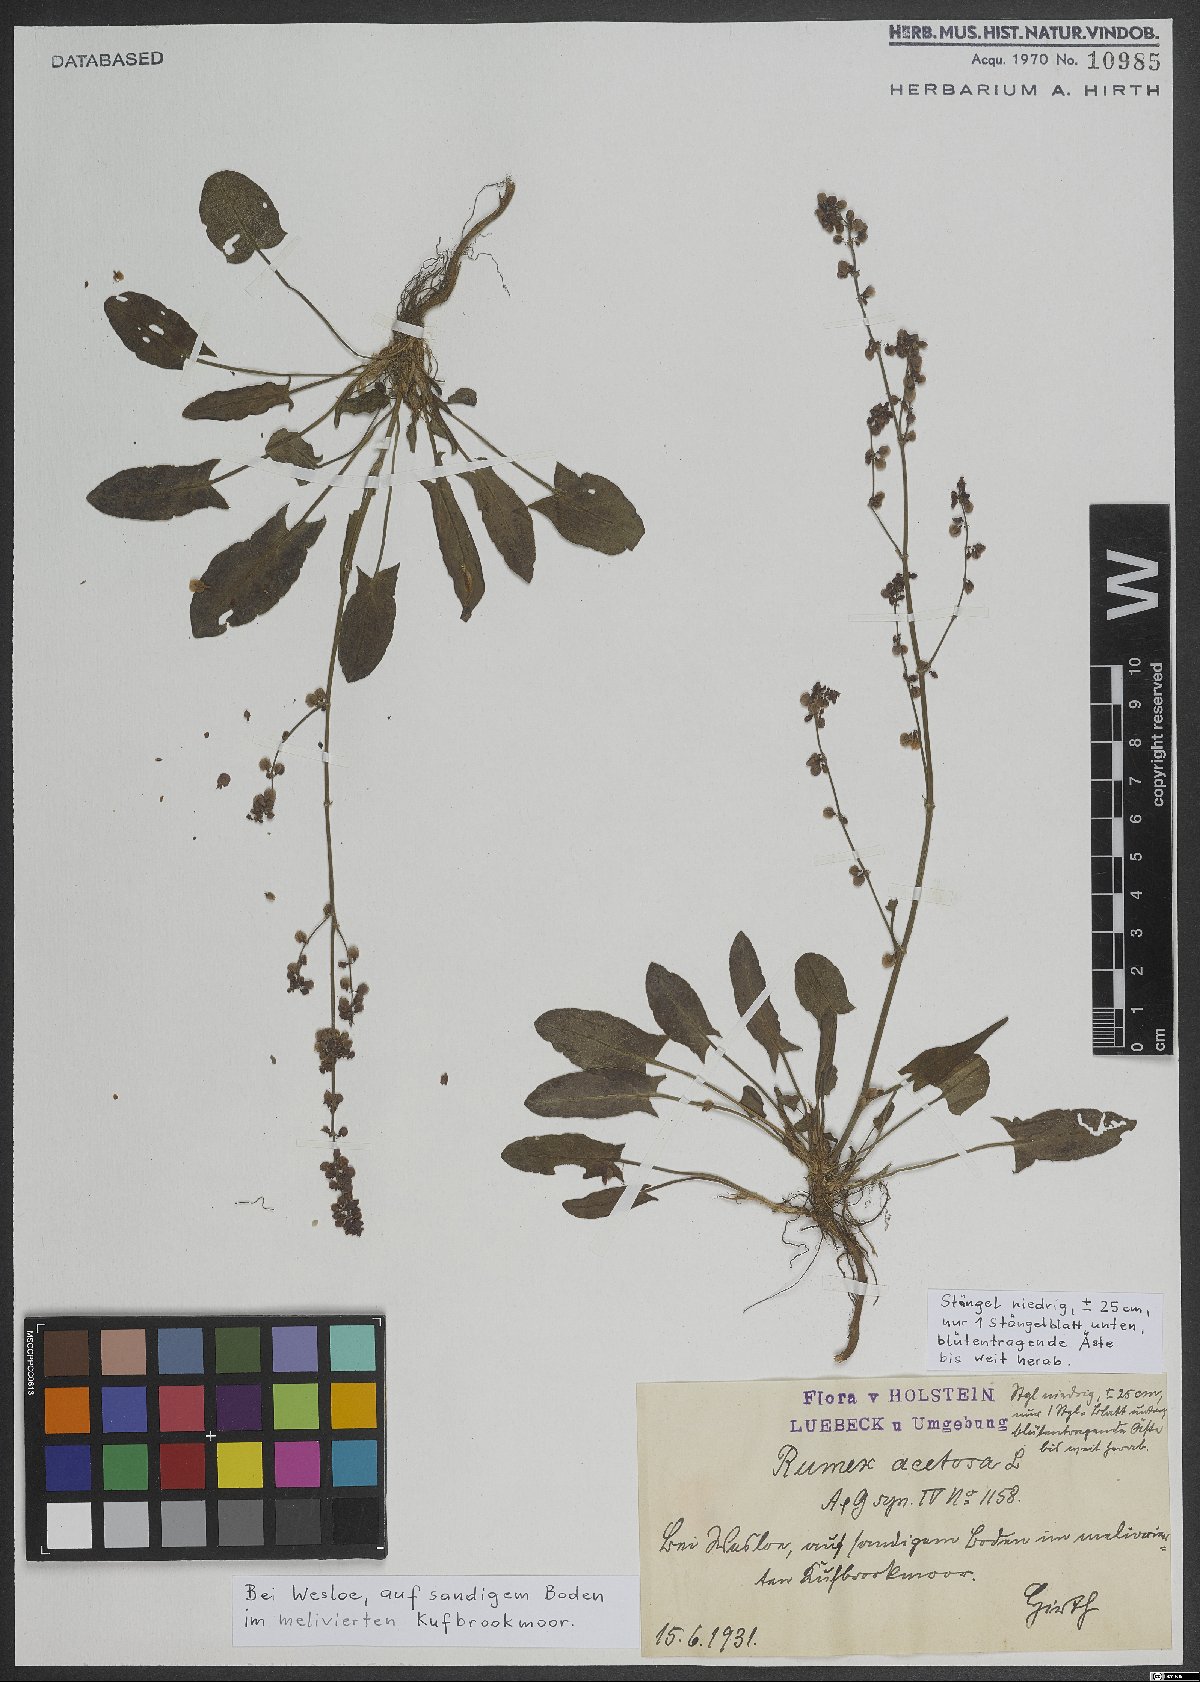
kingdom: Plantae
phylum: Tracheophyta
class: Magnoliopsida
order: Caryophyllales
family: Polygonaceae
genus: Rumex
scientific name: Rumex acetosa
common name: Garden sorrel
